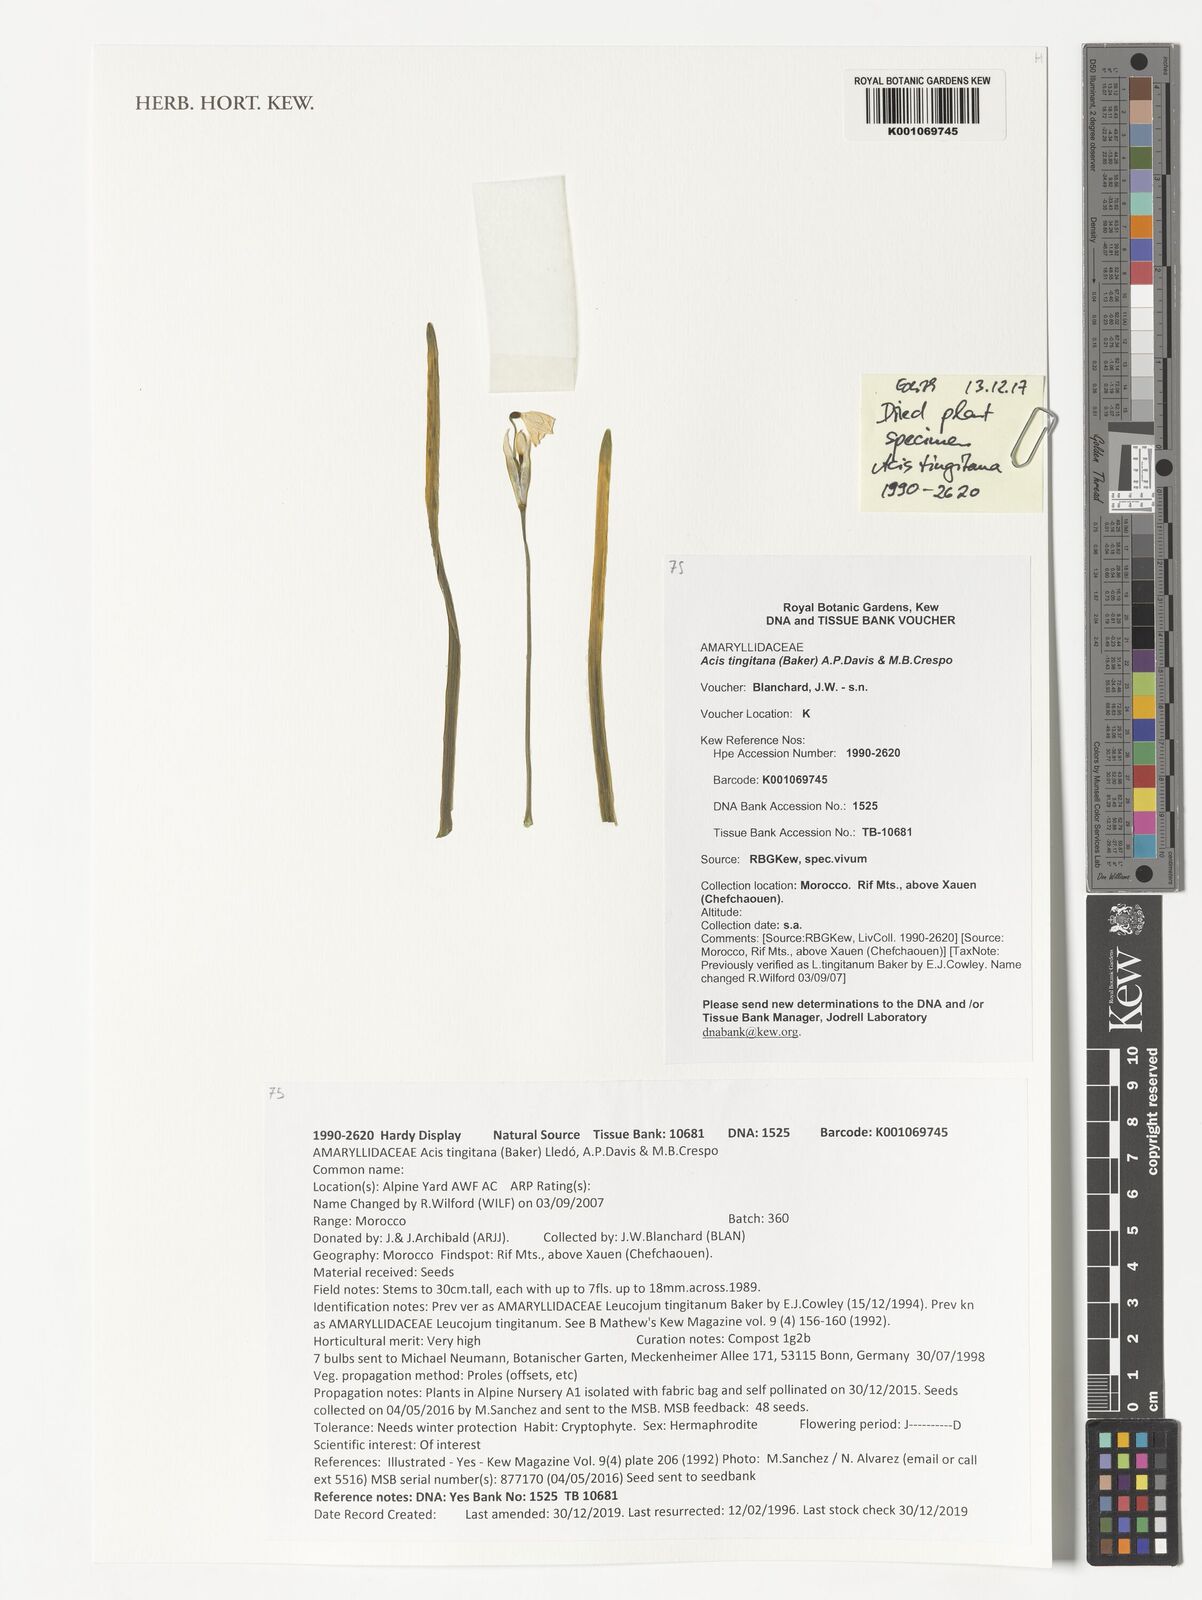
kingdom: Plantae
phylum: Tracheophyta
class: Liliopsida
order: Asparagales
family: Amaryllidaceae
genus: Acis
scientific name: Acis tingitana
